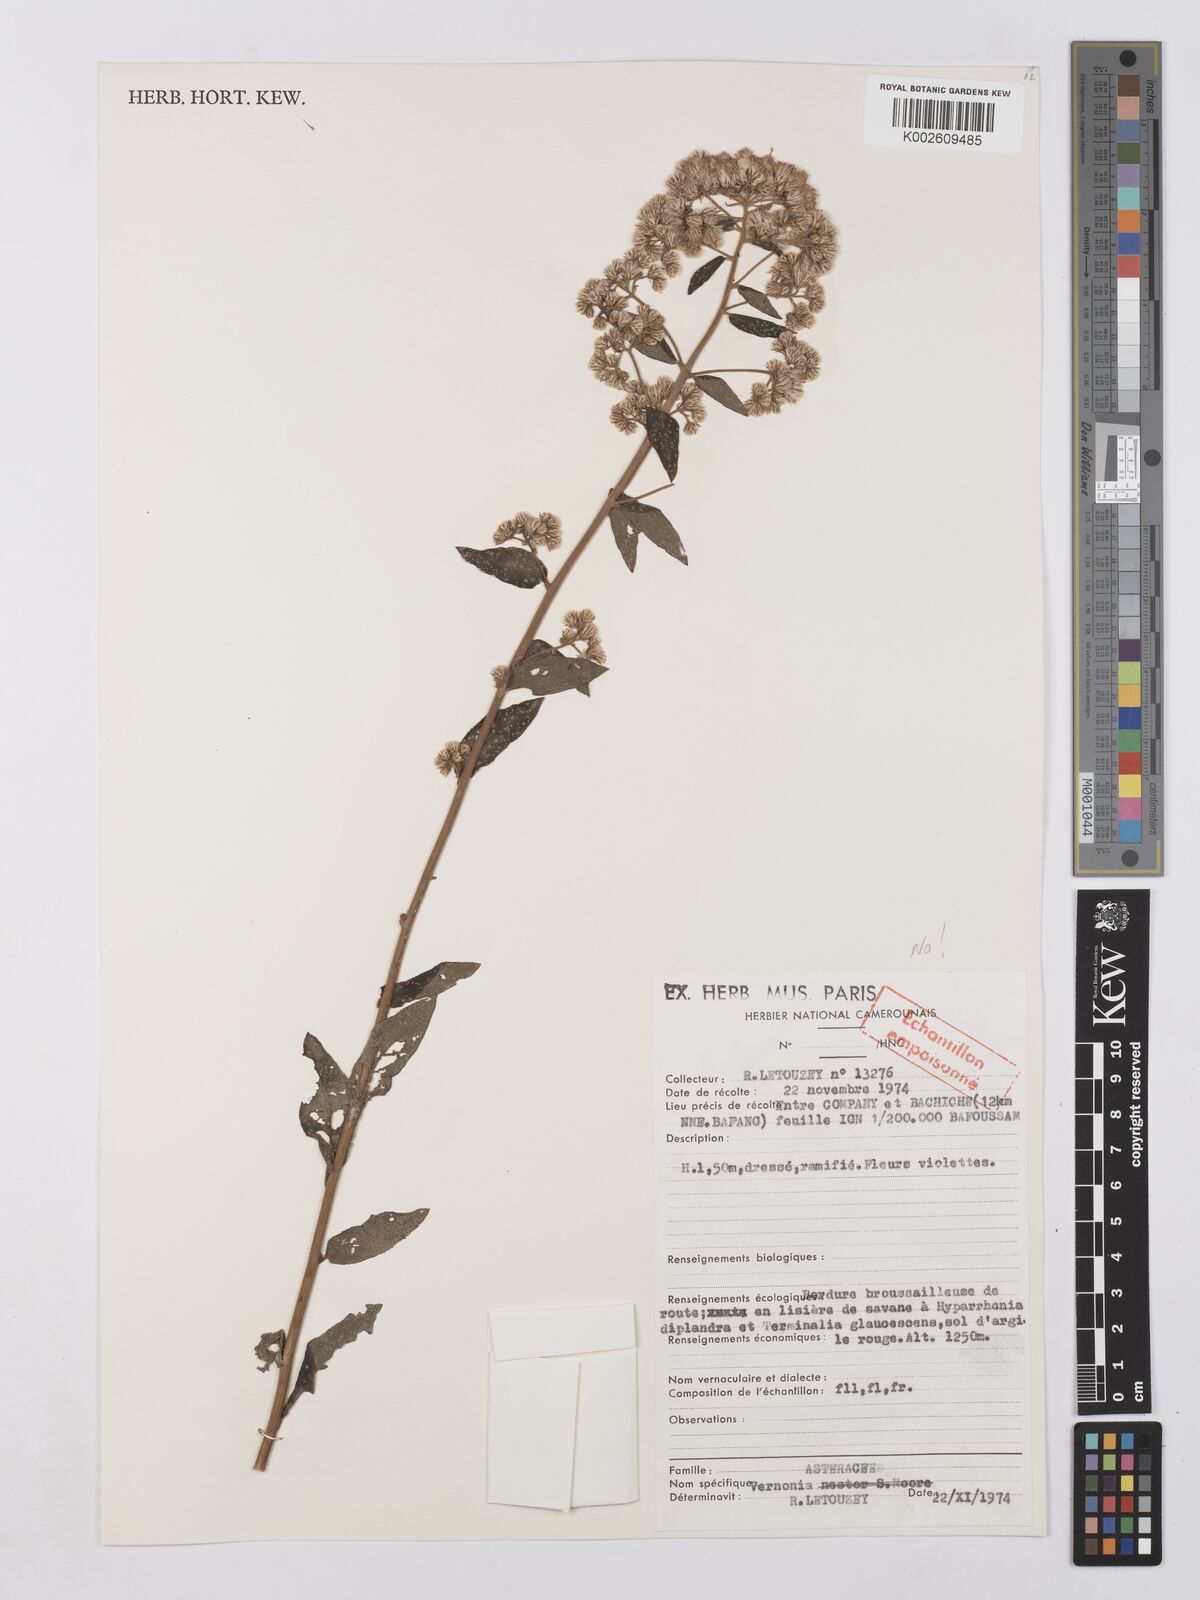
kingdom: Plantae
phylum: Tracheophyta
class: Magnoliopsida
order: Asterales
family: Asteraceae
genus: Vernonia
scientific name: Vernonia
